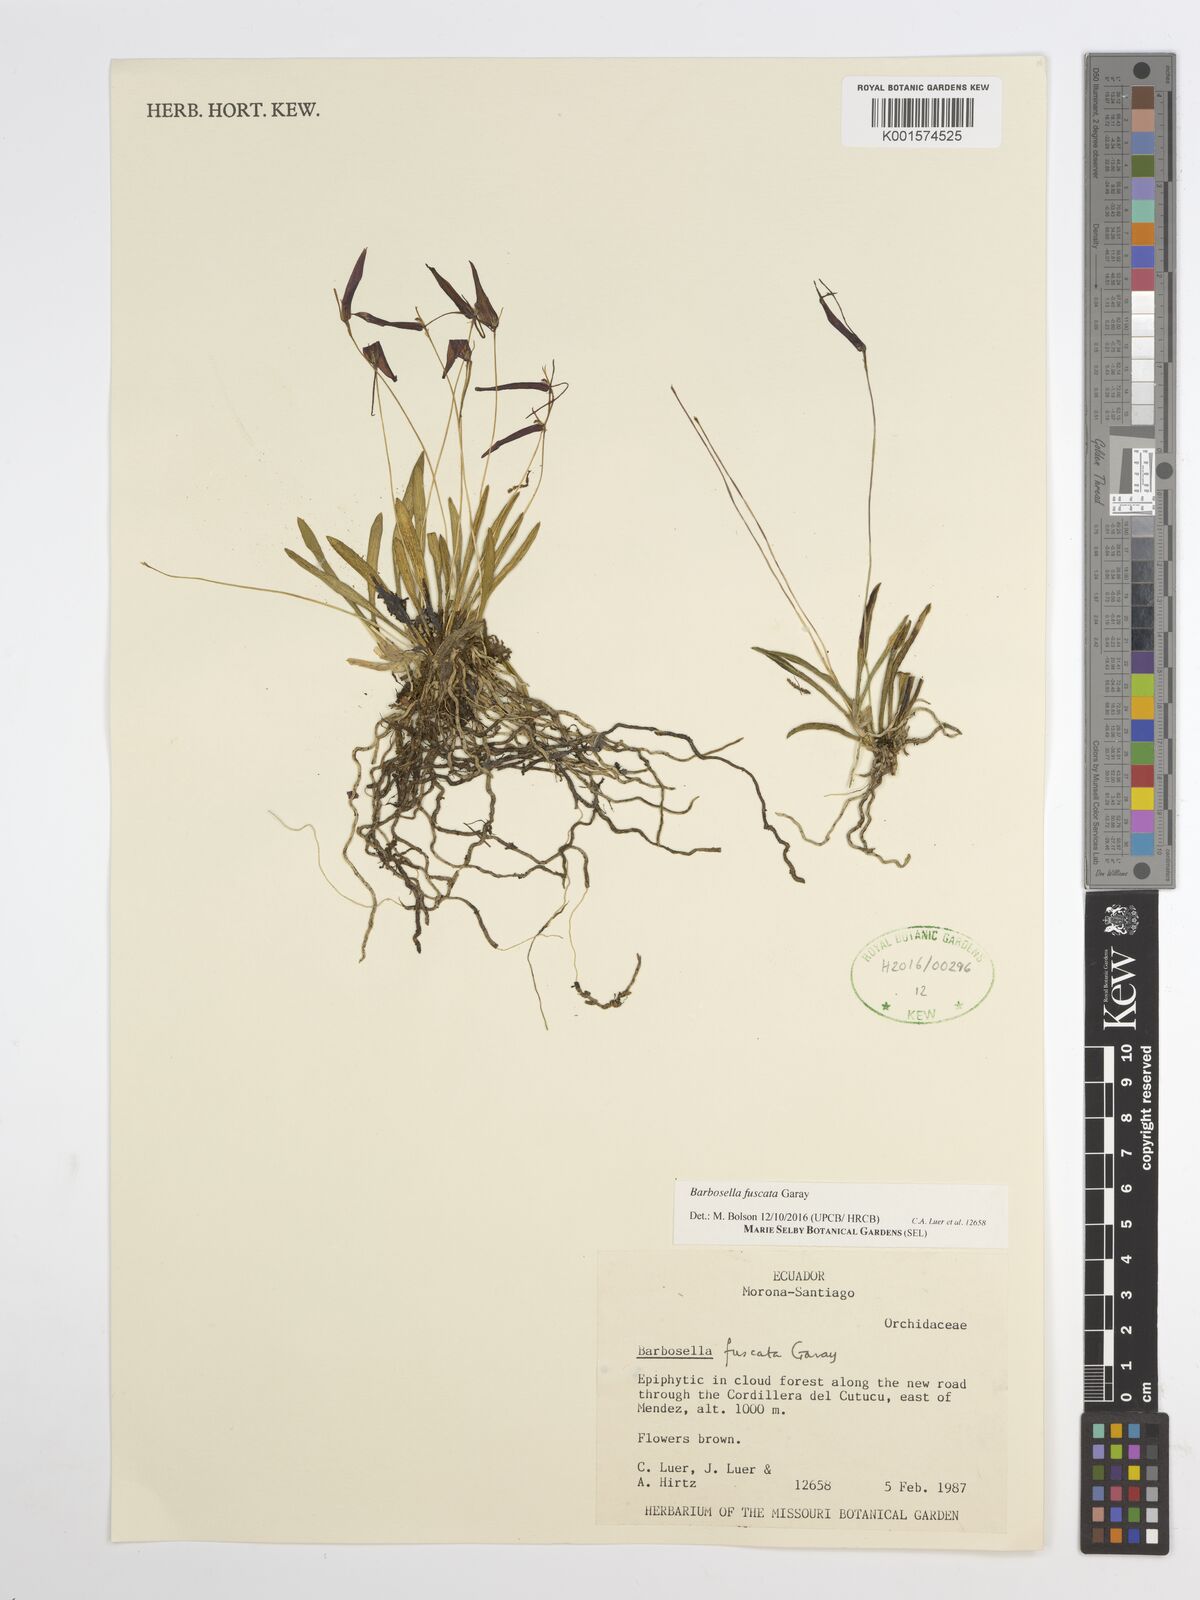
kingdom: Plantae
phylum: Tracheophyta
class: Liliopsida
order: Asparagales
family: Orchidaceae
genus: Barbosella
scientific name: Barbosella dolichorhiza
